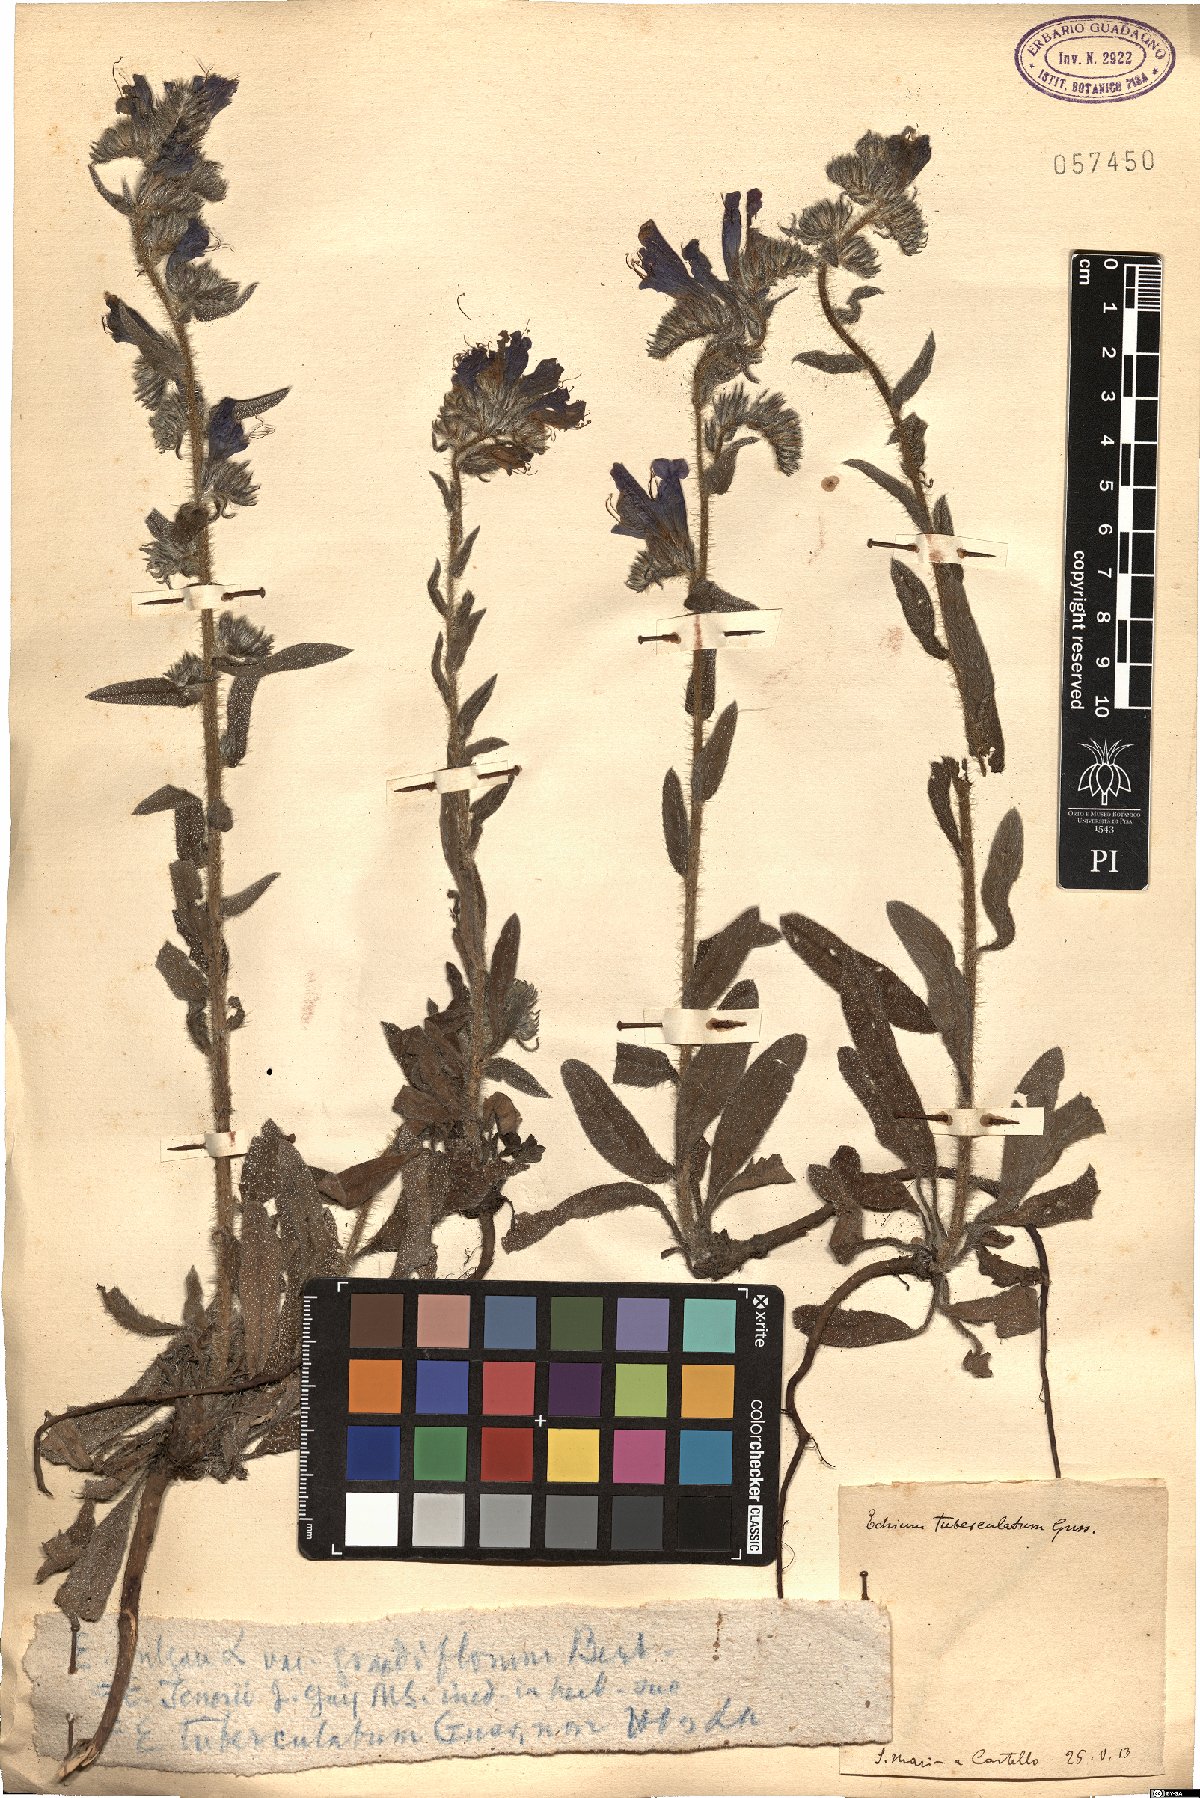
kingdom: Plantae
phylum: Tracheophyta
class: Magnoliopsida
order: Boraginales
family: Boraginaceae
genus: Echium
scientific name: Echium tuberculatum
